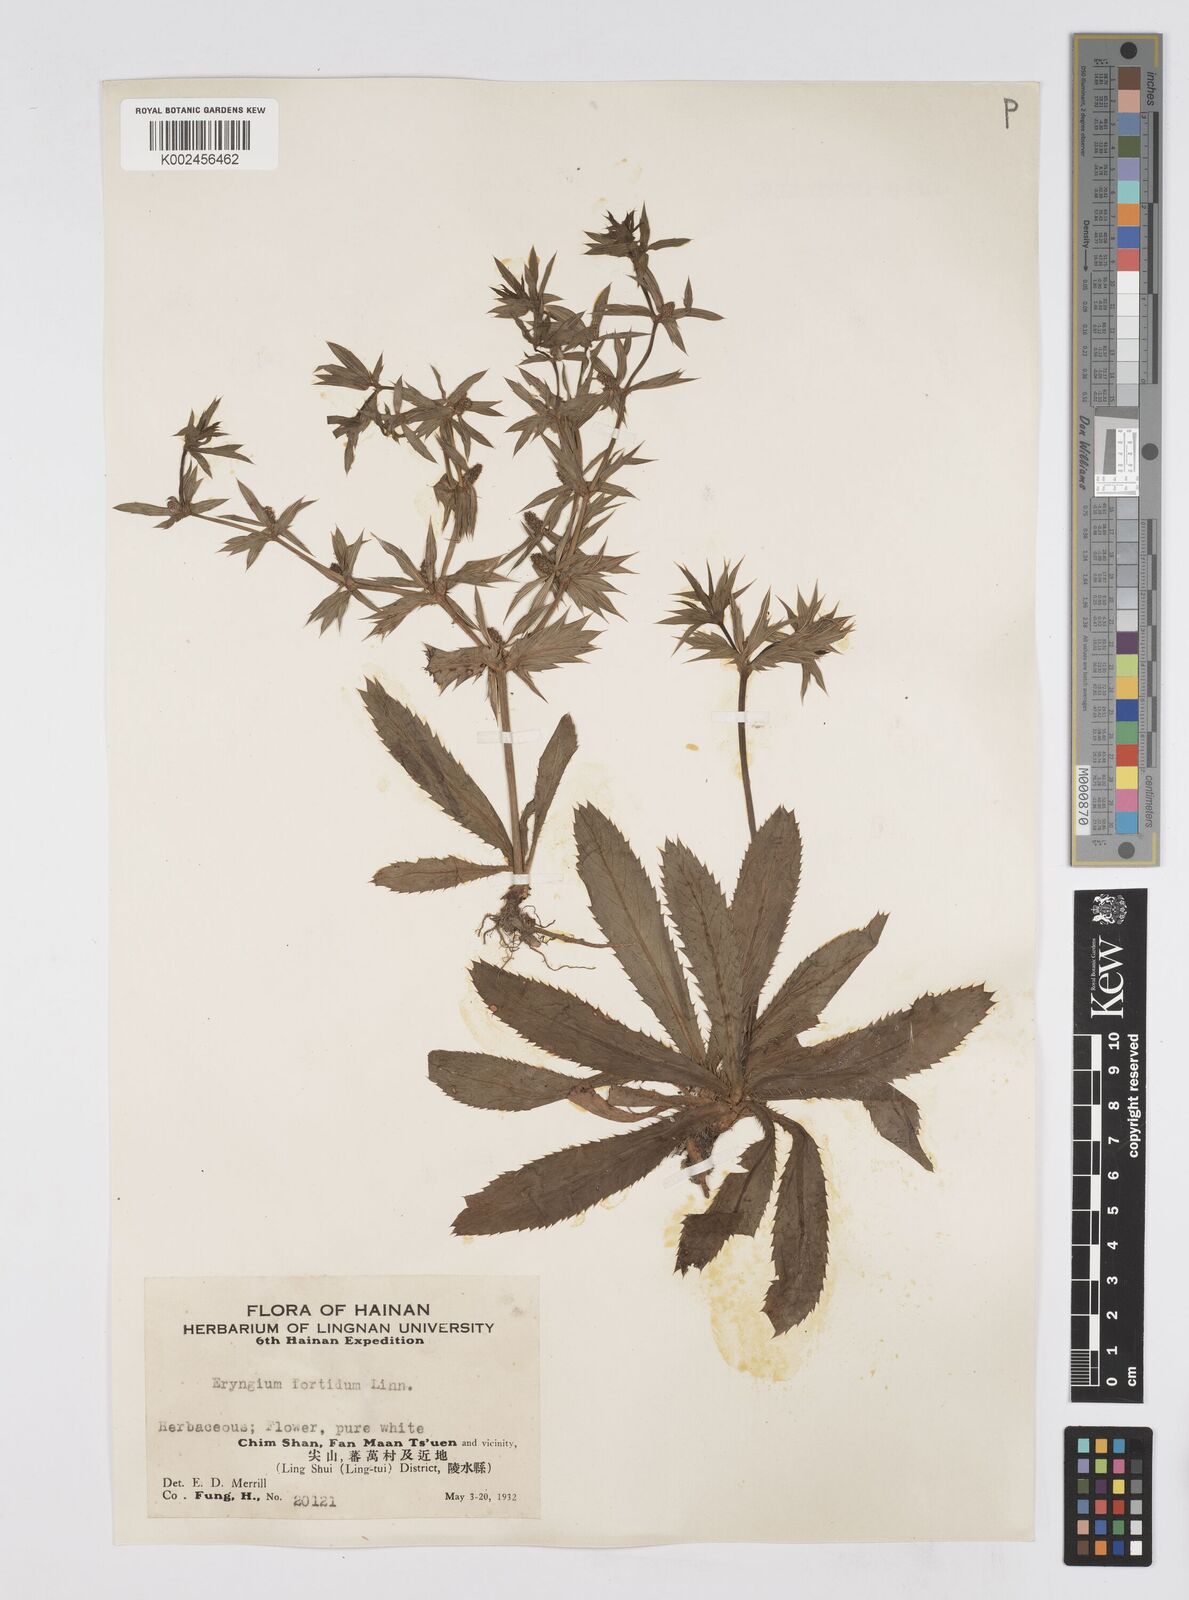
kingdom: Plantae
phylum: Tracheophyta
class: Magnoliopsida
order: Apiales
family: Apiaceae
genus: Eryngium
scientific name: Eryngium foetidum
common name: Fitweed
